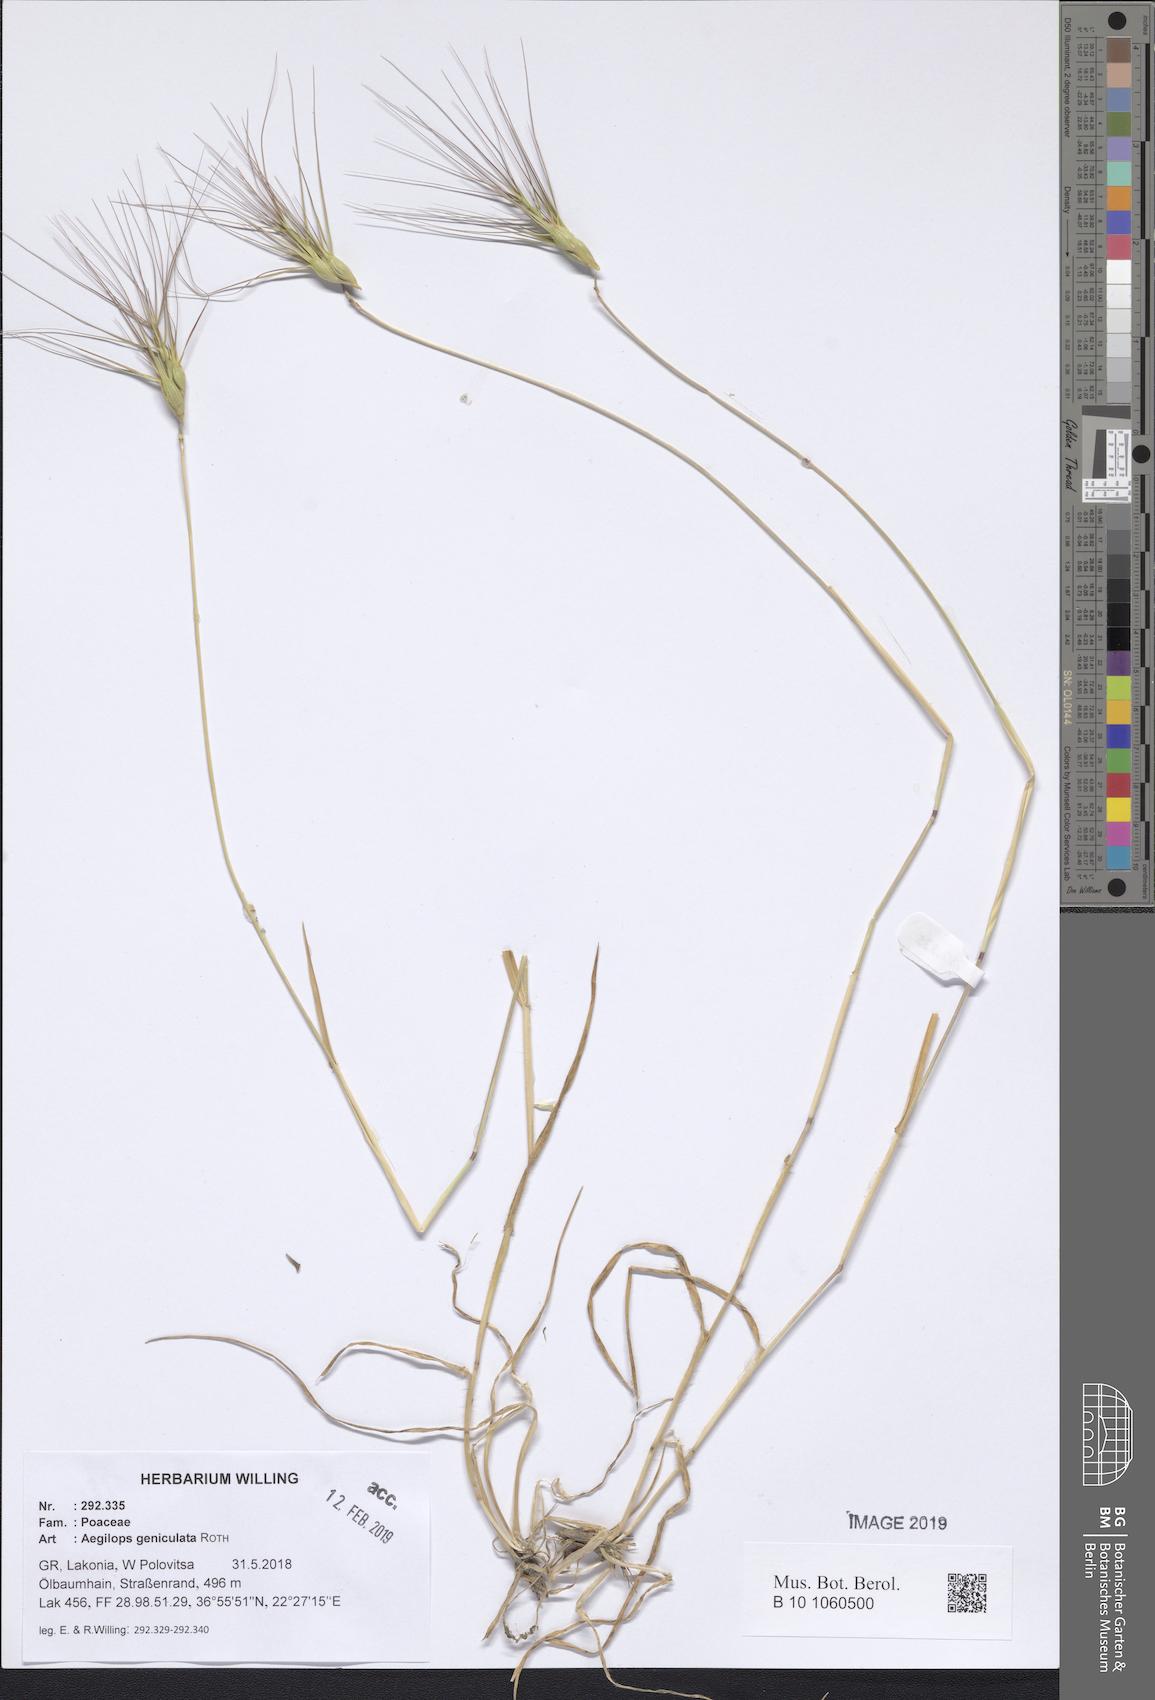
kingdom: Plantae
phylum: Tracheophyta
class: Liliopsida
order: Poales
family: Poaceae
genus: Aegilops
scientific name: Aegilops geniculata
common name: Ovate goat grass
